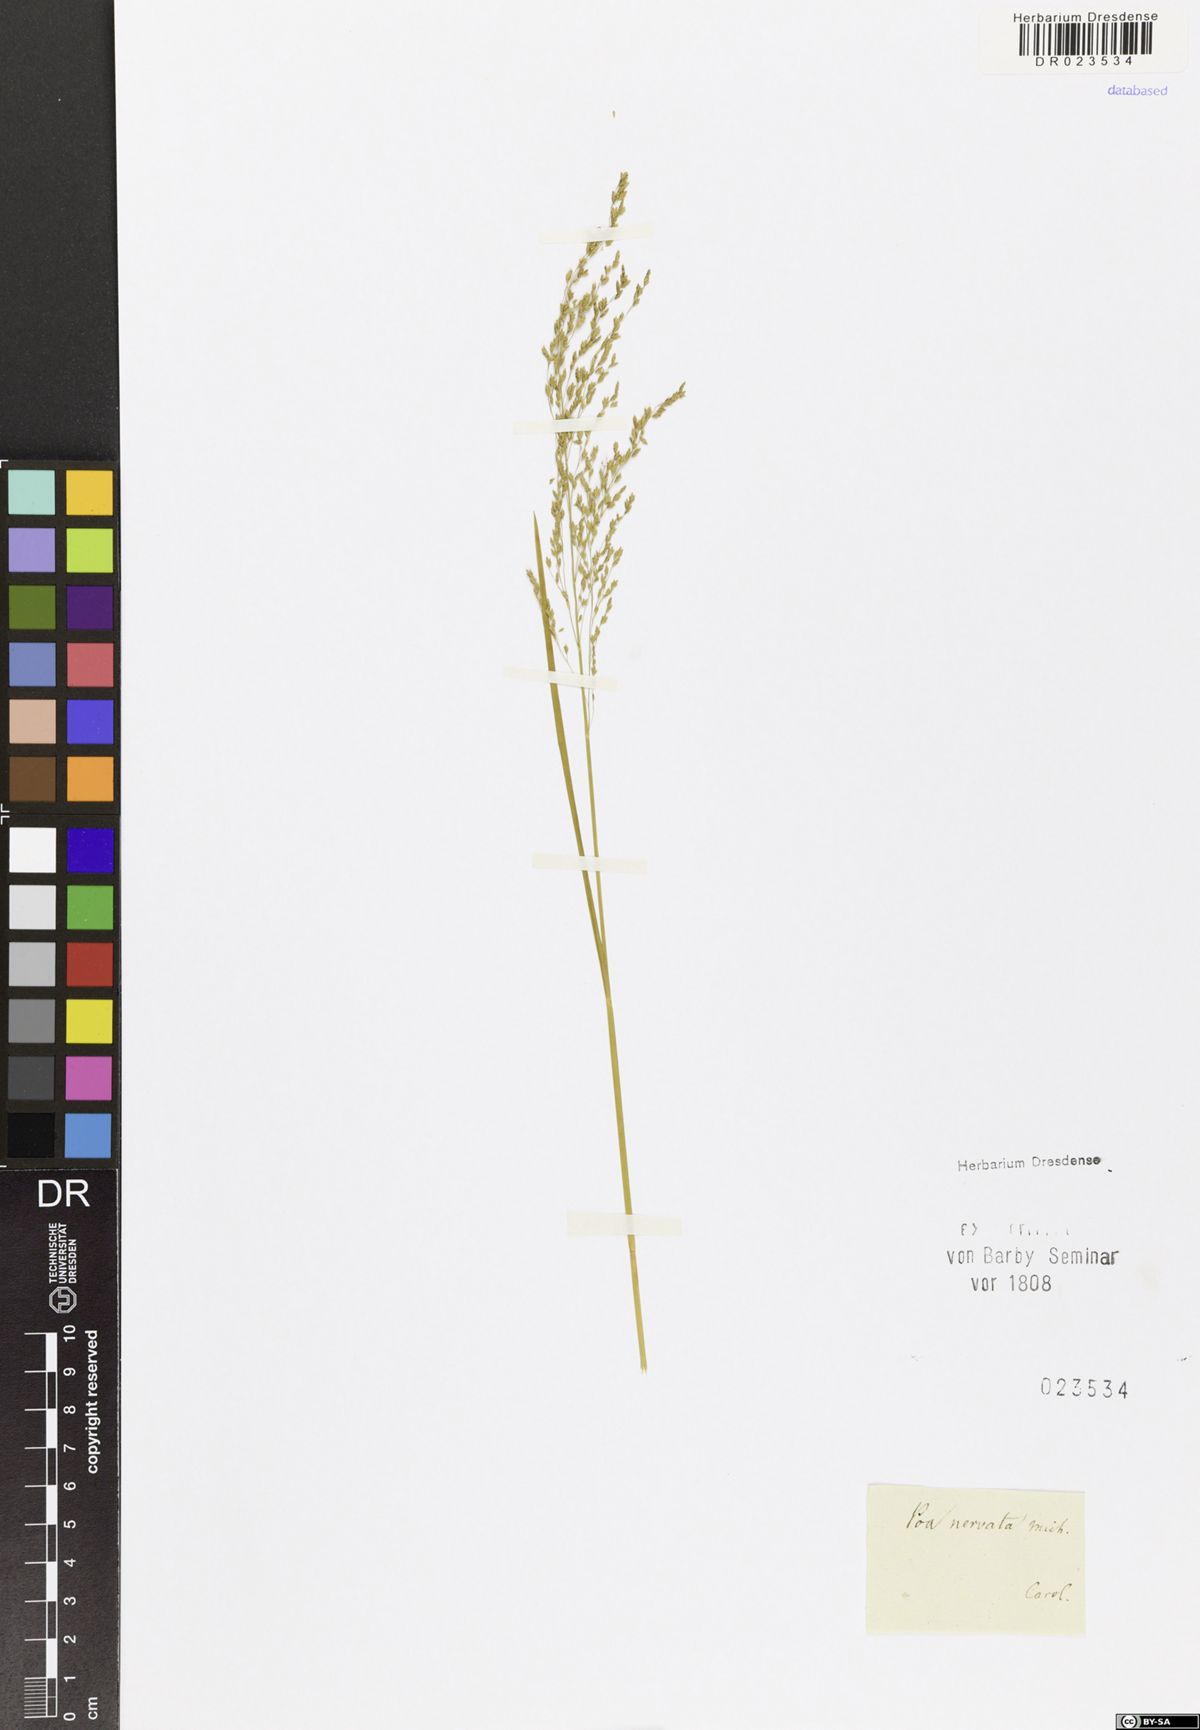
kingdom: Plantae
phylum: Tracheophyta
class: Liliopsida
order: Poales
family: Poaceae
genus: Glyceria
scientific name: Glyceria striata
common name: Fowl manna grass
